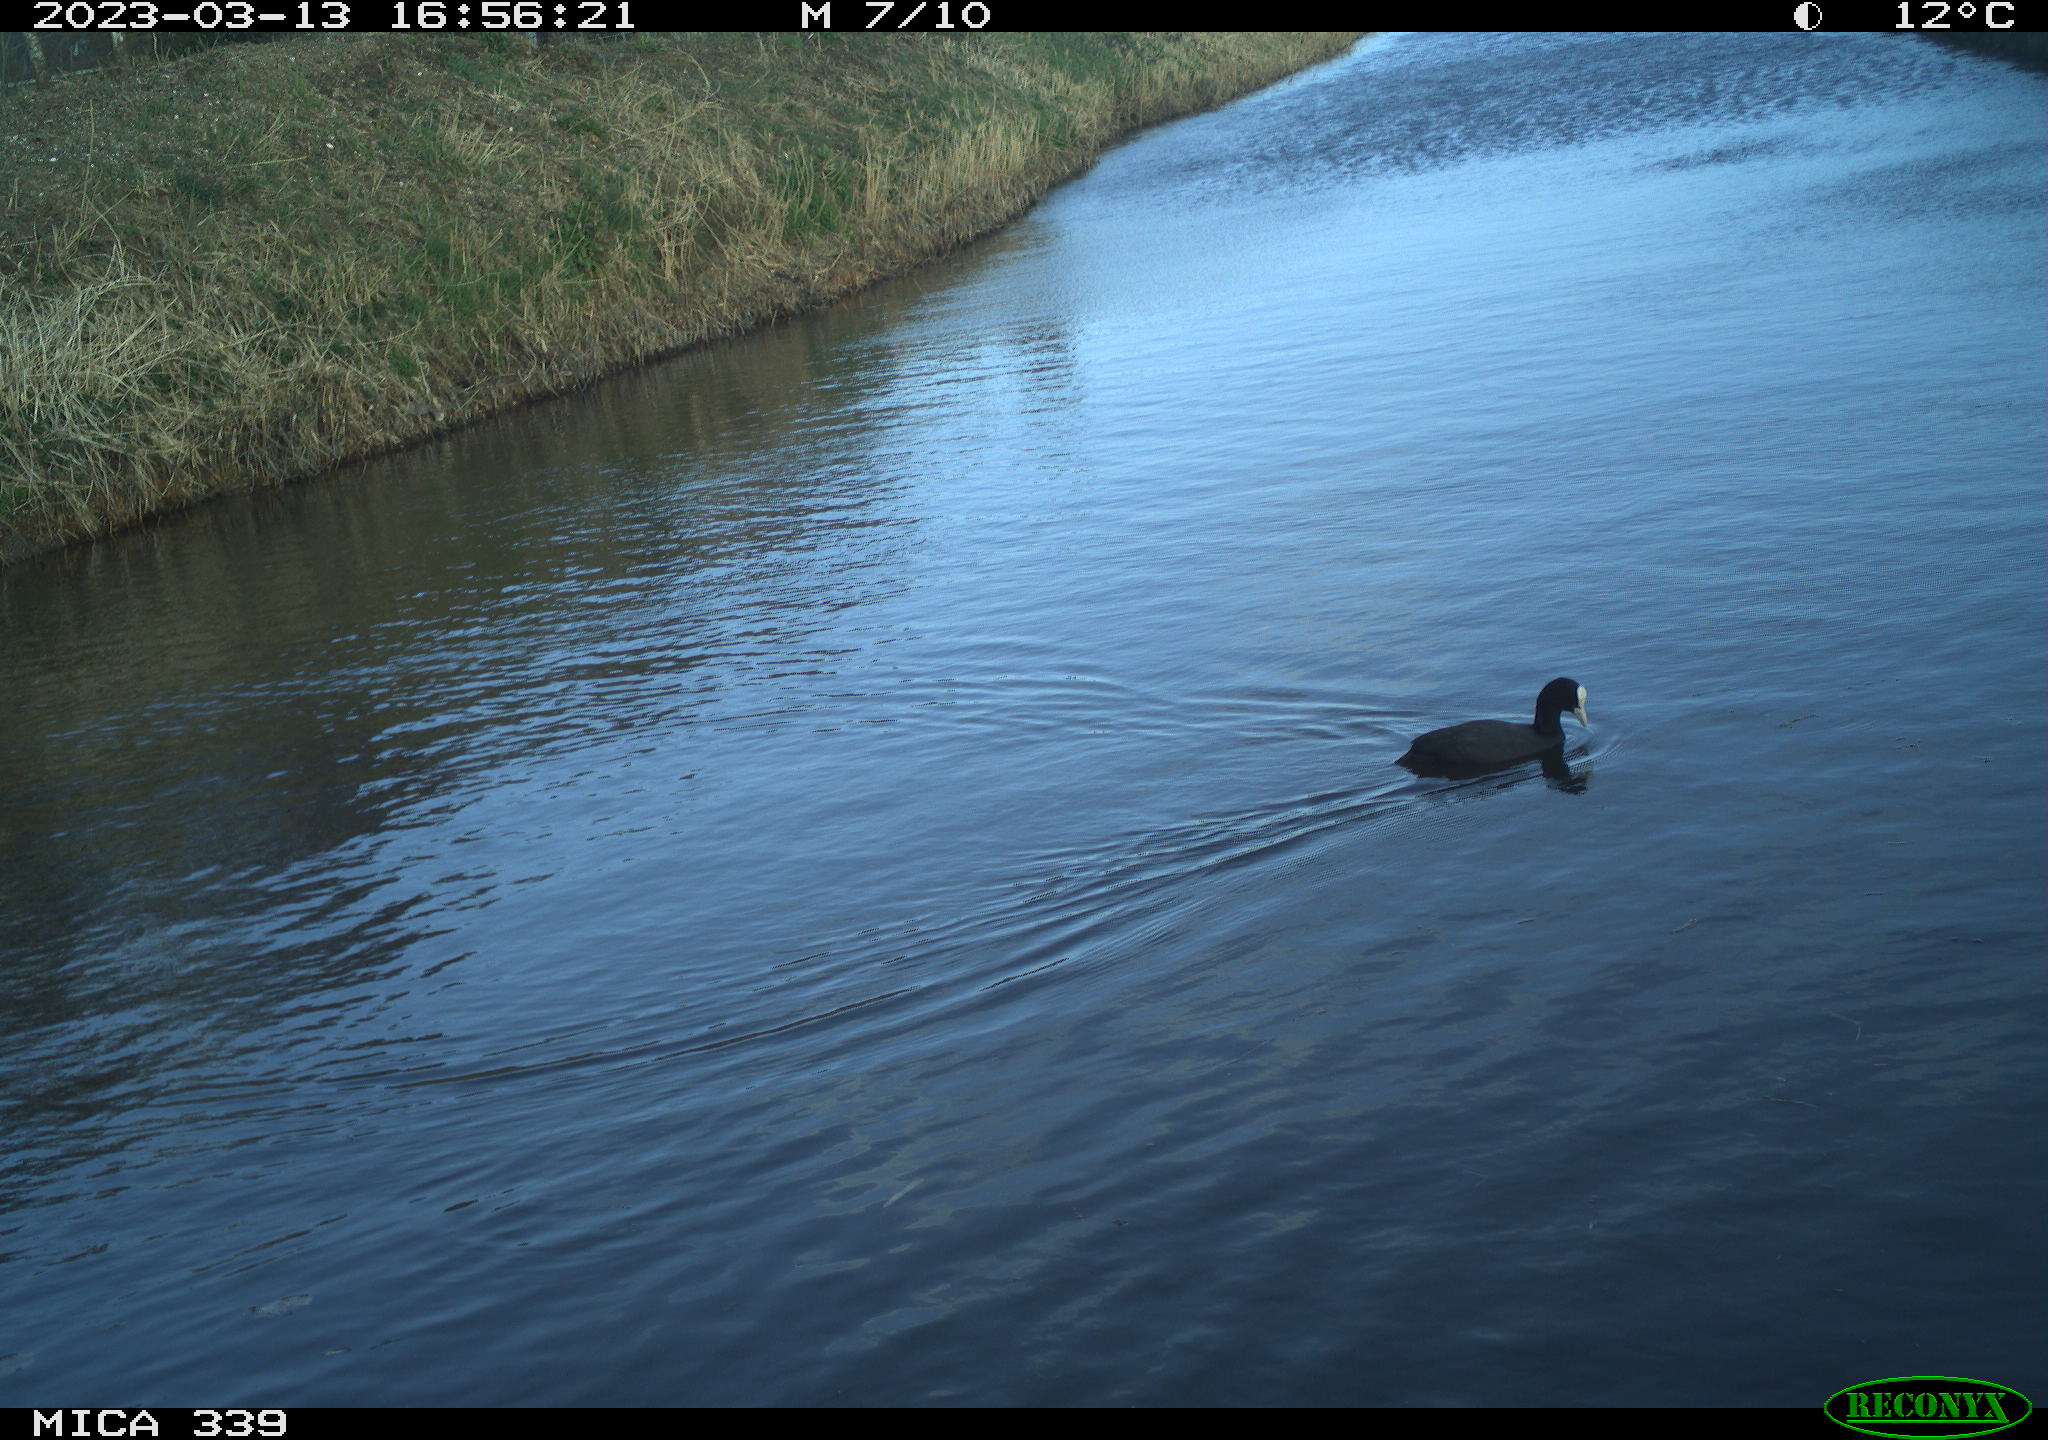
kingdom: Animalia
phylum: Chordata
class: Aves
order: Gruiformes
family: Rallidae
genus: Fulica
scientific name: Fulica atra
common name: Eurasian coot
